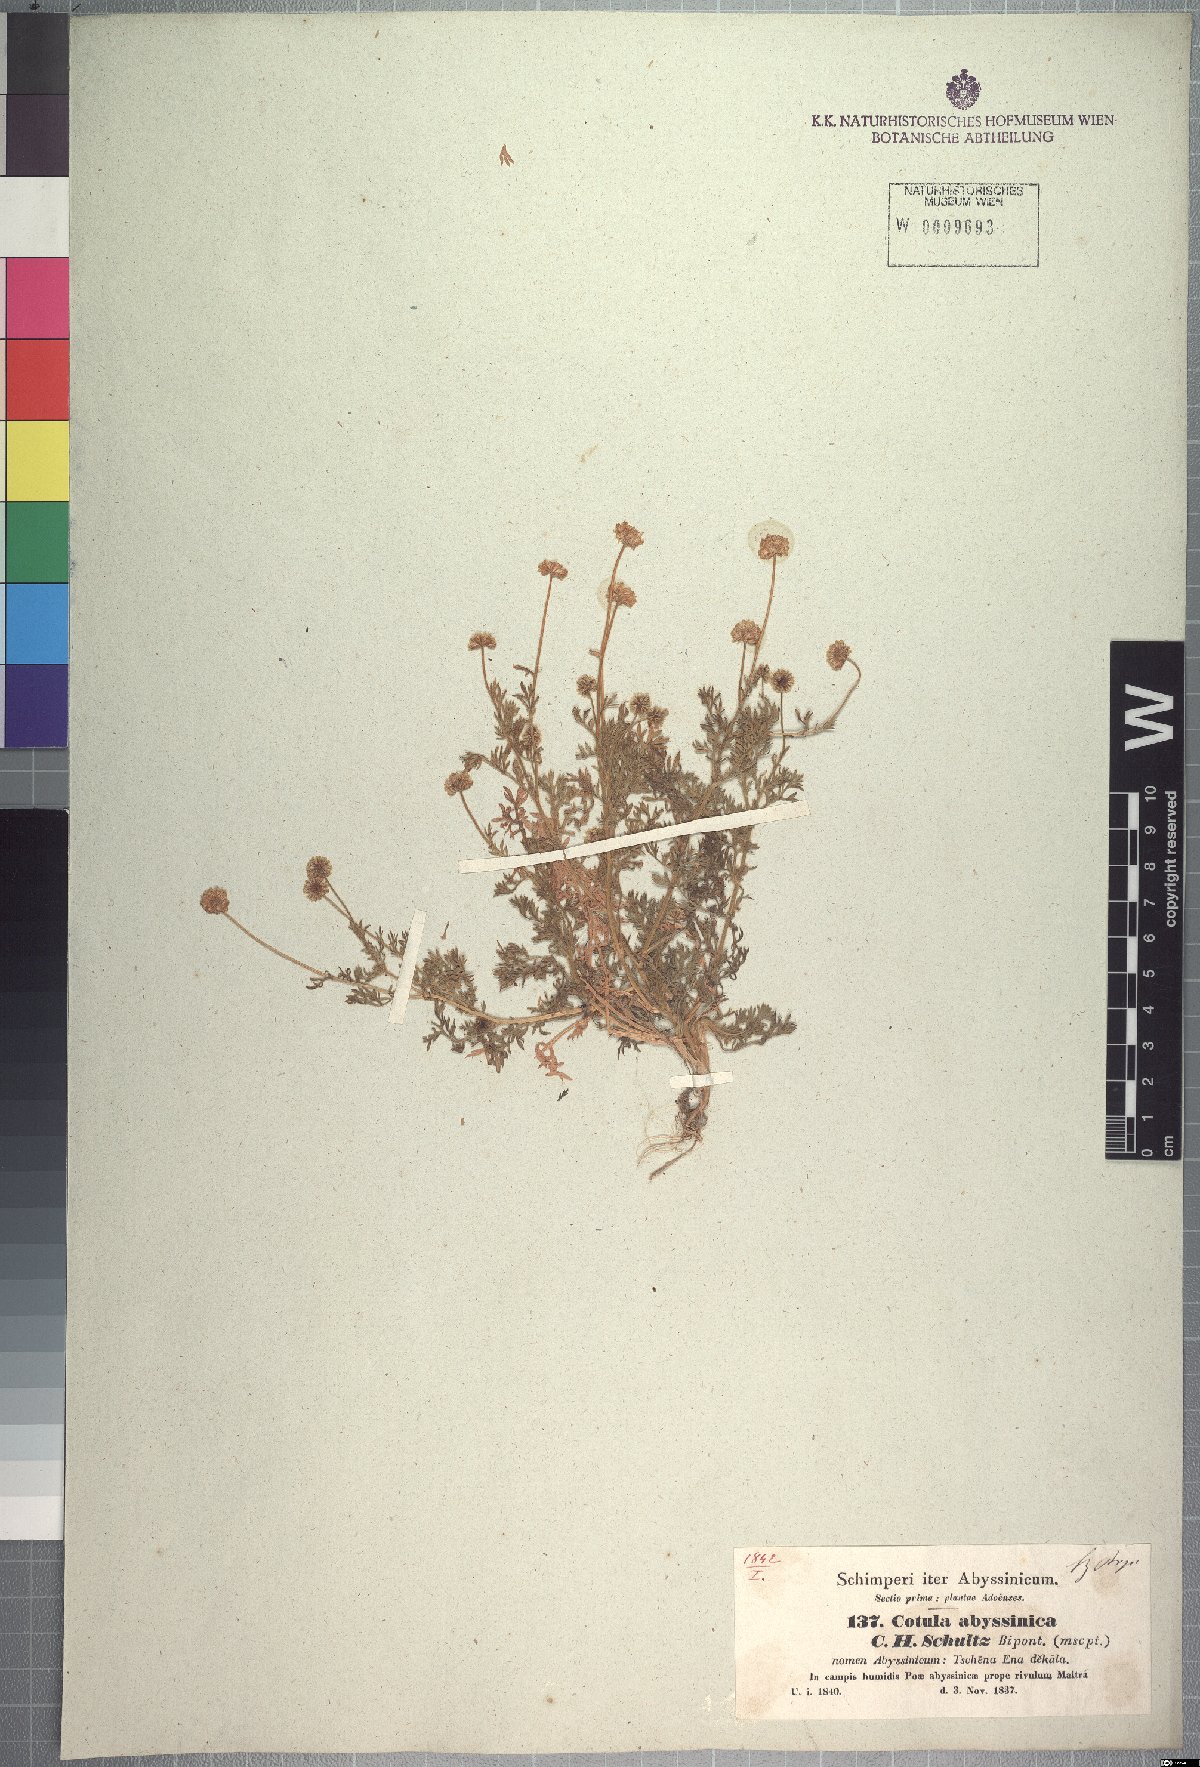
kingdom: Plantae
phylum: Tracheophyta
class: Magnoliopsida
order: Asterales
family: Asteraceae
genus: Cotula
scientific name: Cotula abyssinica
